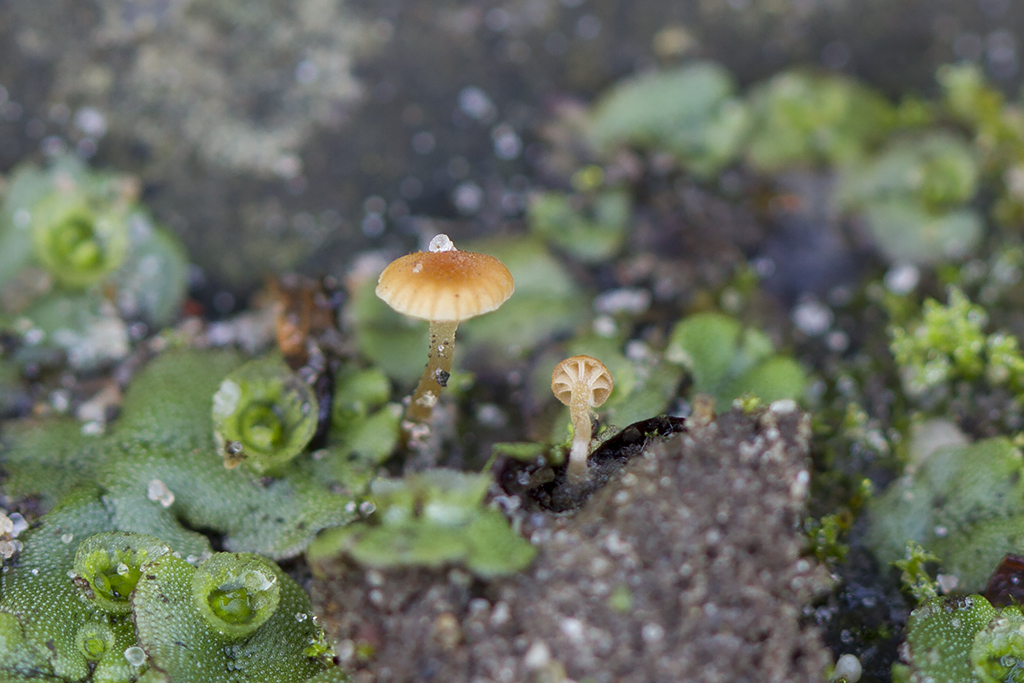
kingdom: Fungi
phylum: Basidiomycota
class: Agaricomycetes
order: Hymenochaetales
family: Rickenellaceae
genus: Loreleia
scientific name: Loreleia marchantiae
